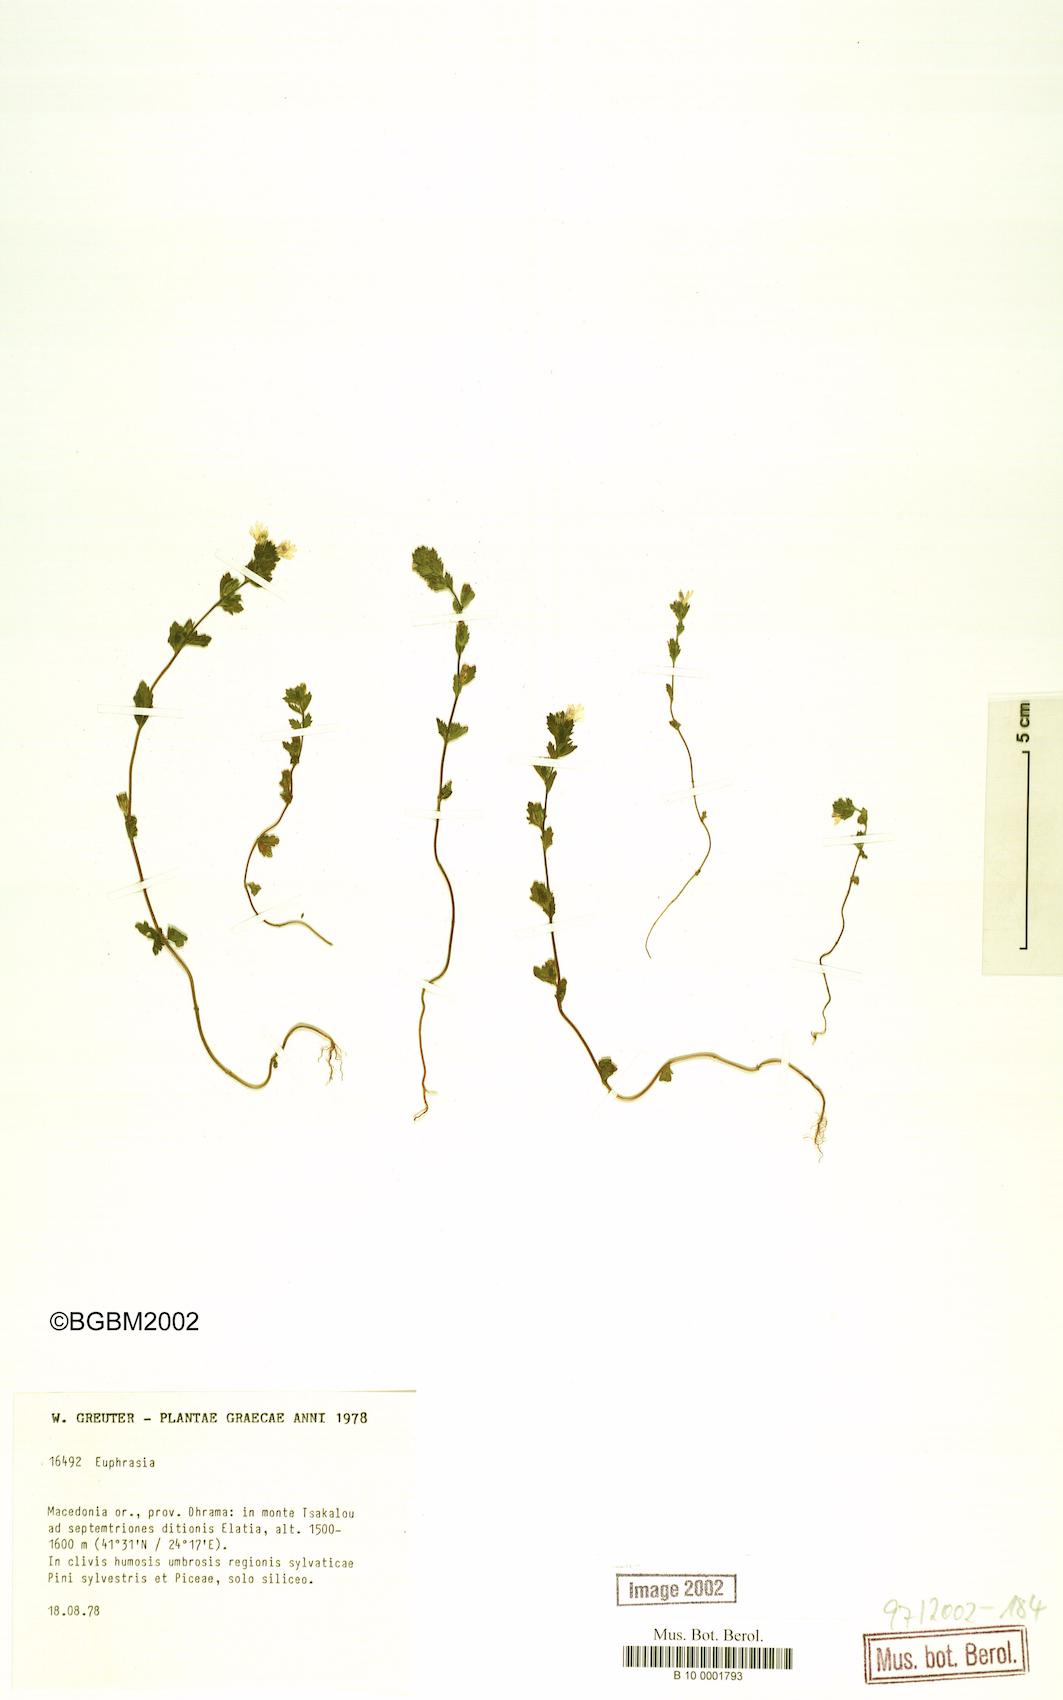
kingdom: Plantae
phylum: Tracheophyta
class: Magnoliopsida
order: Lamiales
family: Orobanchaceae
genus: Euphrasia
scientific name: Euphrasia
